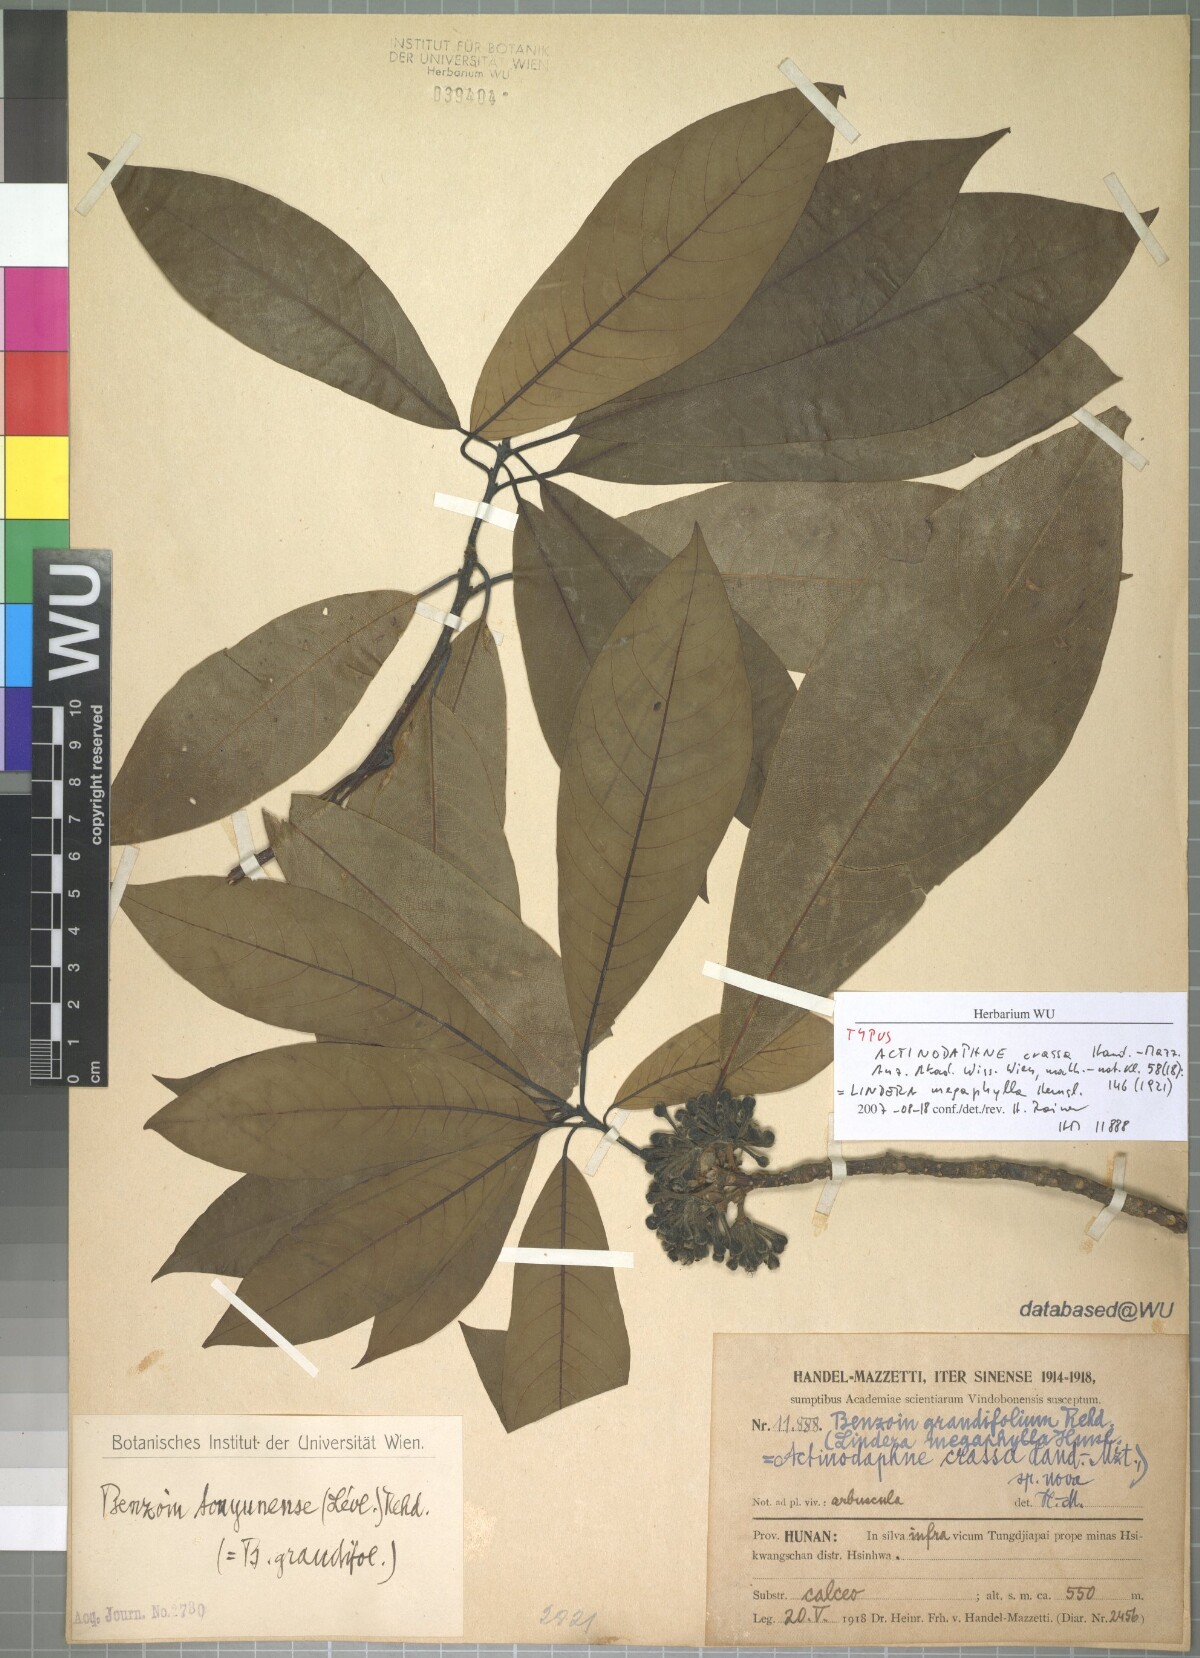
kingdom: Plantae
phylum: Tracheophyta
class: Magnoliopsida
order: Laurales
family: Lauraceae
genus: Lindera
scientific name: Lindera megaphylla
